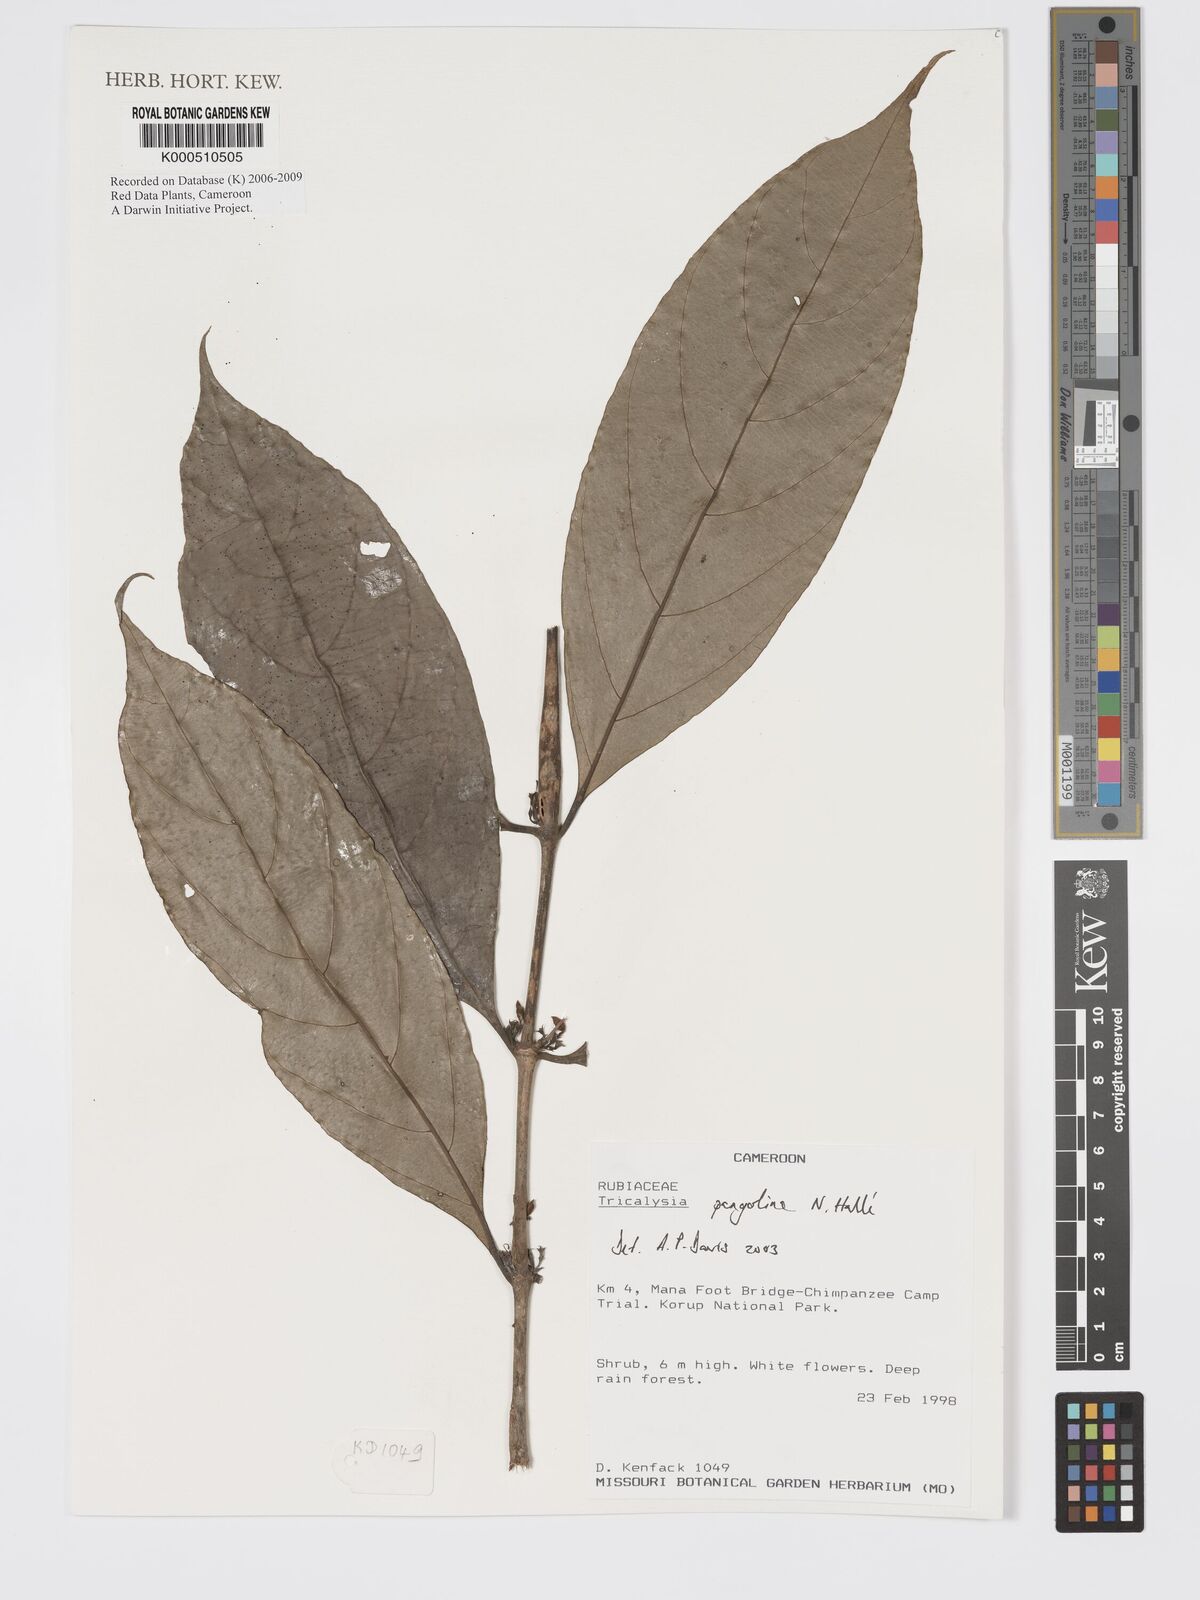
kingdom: Plantae
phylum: Tracheophyta
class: Magnoliopsida
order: Gentianales
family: Rubiaceae
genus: Tricalysia
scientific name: Tricalysia
